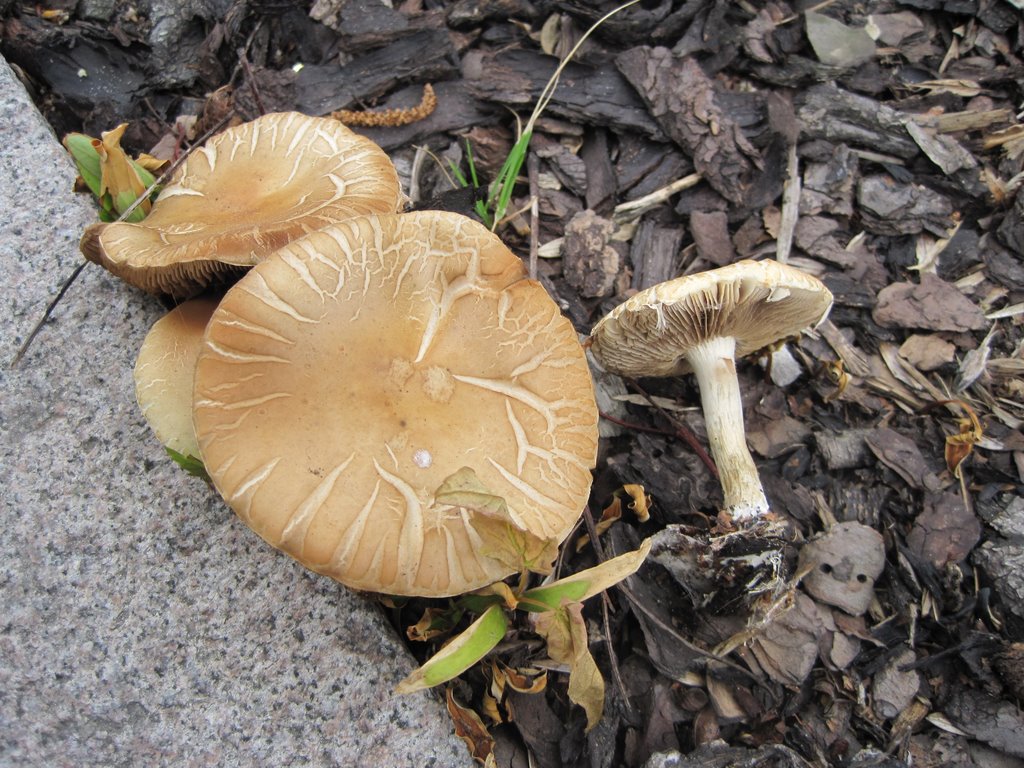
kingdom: Fungi
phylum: Basidiomycota
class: Agaricomycetes
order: Agaricales
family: Strophariaceae
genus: Agrocybe
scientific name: Agrocybe praecox
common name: tidlig agerhat
